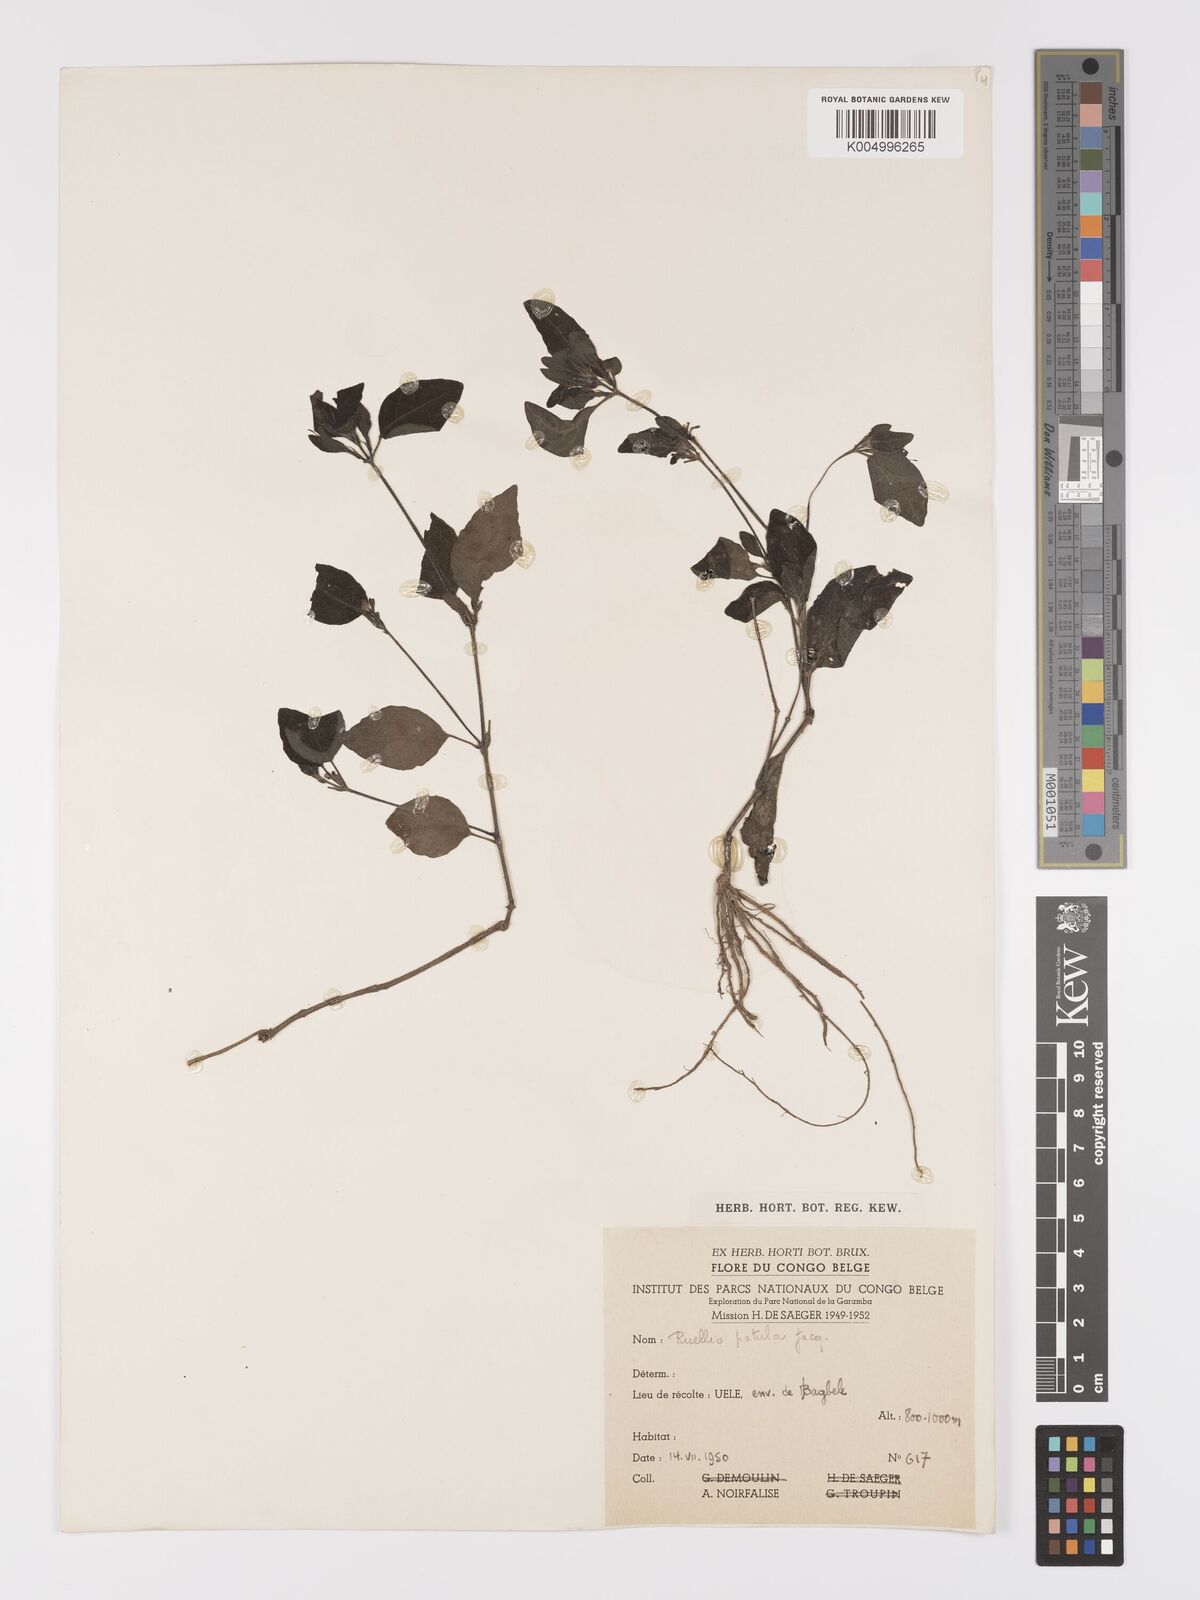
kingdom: Plantae
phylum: Tracheophyta
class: Magnoliopsida
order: Lamiales
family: Acanthaceae
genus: Ruellia
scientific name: Ruellia praetermissa
